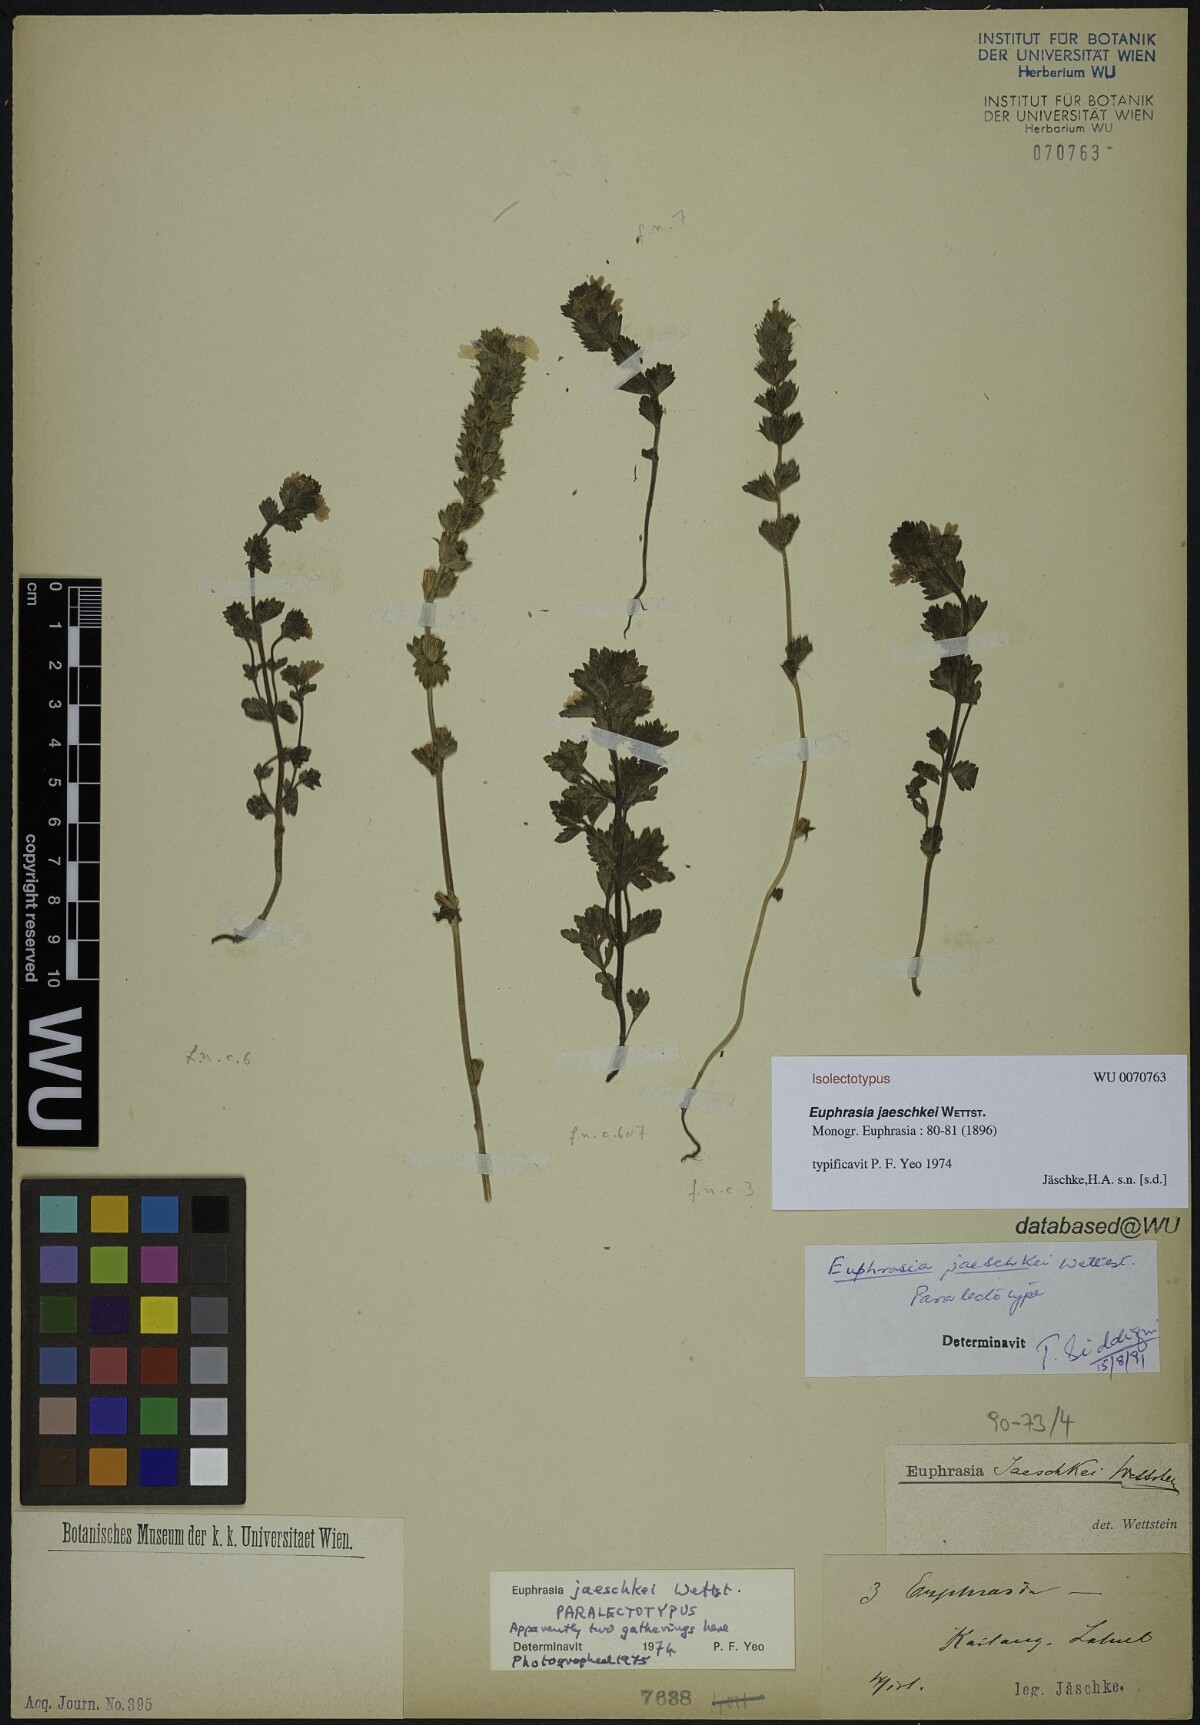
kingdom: Plantae
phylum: Tracheophyta
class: Magnoliopsida
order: Lamiales
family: Orobanchaceae
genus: Euphrasia
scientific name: Euphrasia jaeschkei
